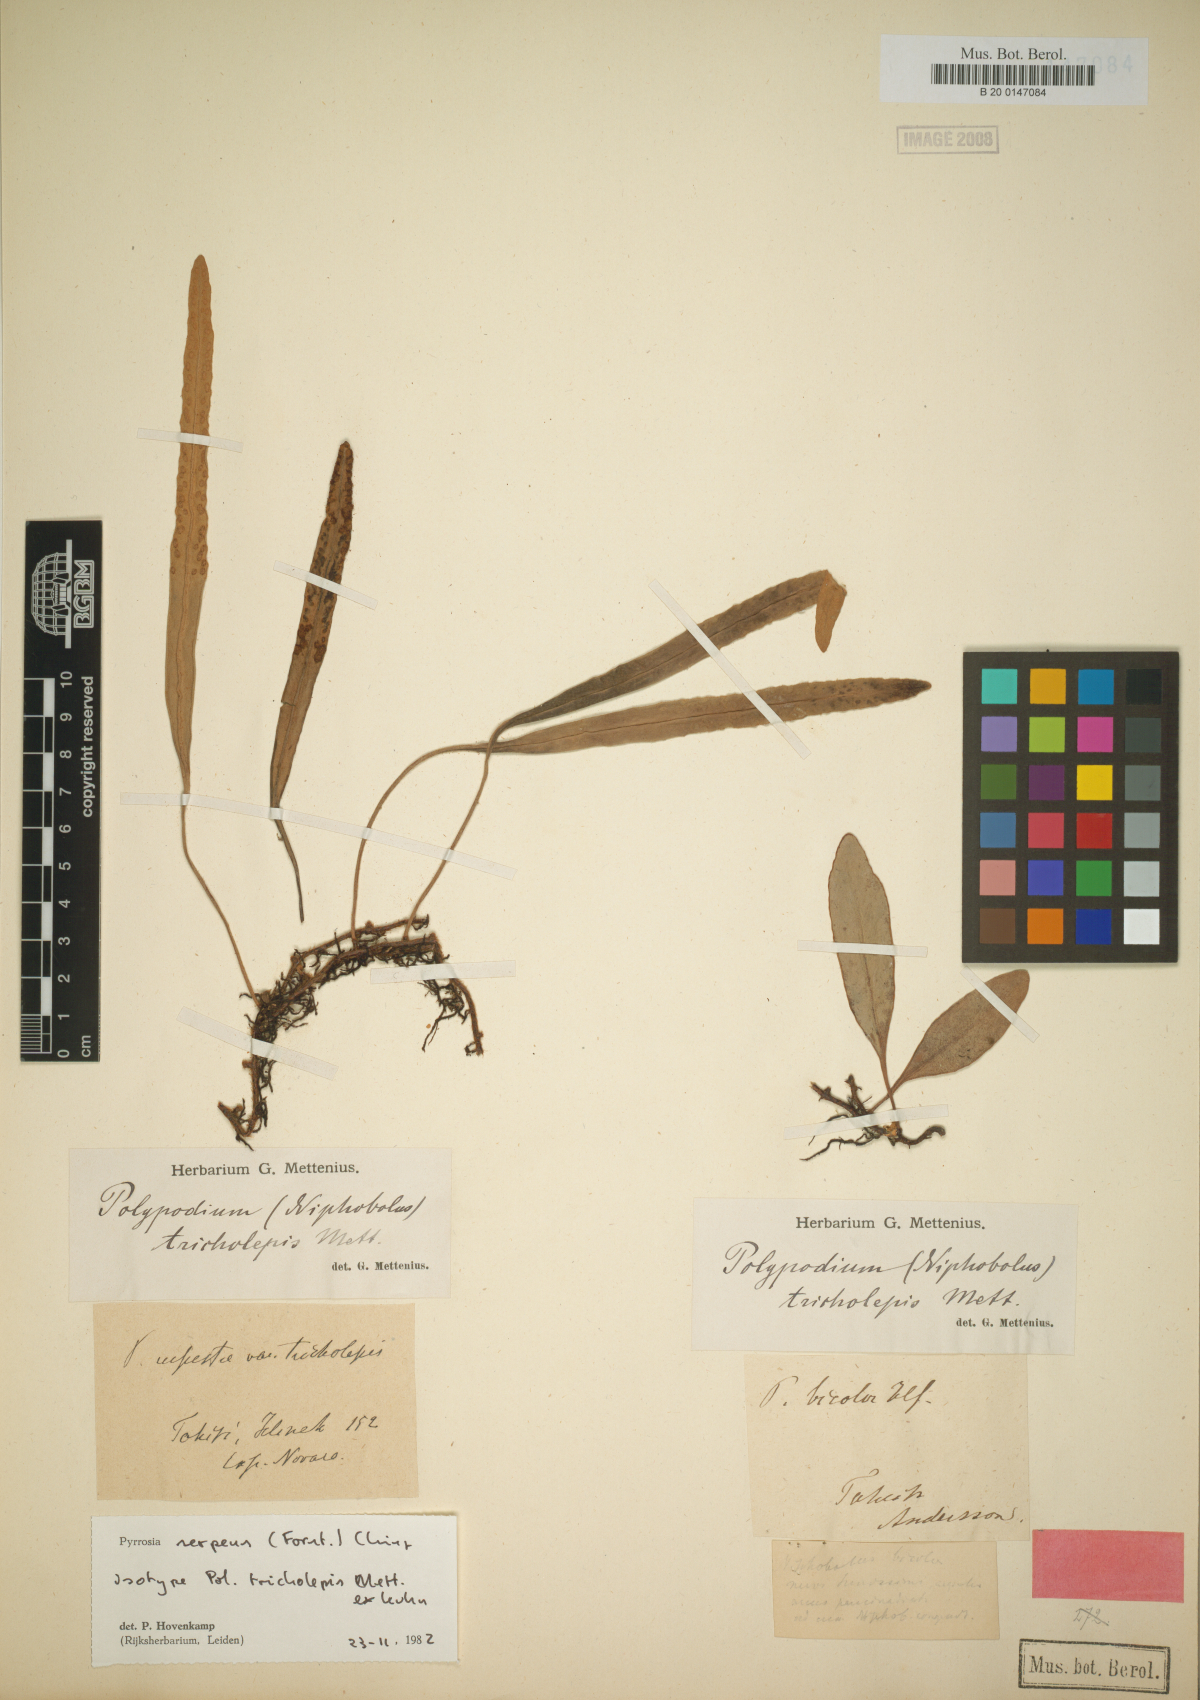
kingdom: Plantae
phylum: Tracheophyta
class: Polypodiopsida
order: Polypodiales
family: Polypodiaceae
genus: Pyrrosia
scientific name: Pyrrosia serpens
